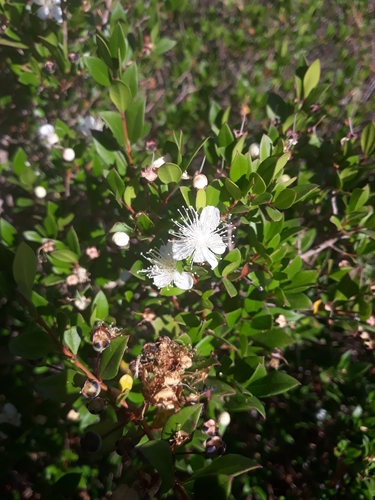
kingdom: Plantae
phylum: Tracheophyta
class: Magnoliopsida
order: Myrtales
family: Myrtaceae
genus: Myrtus
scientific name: Myrtus communis
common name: Myrtle
